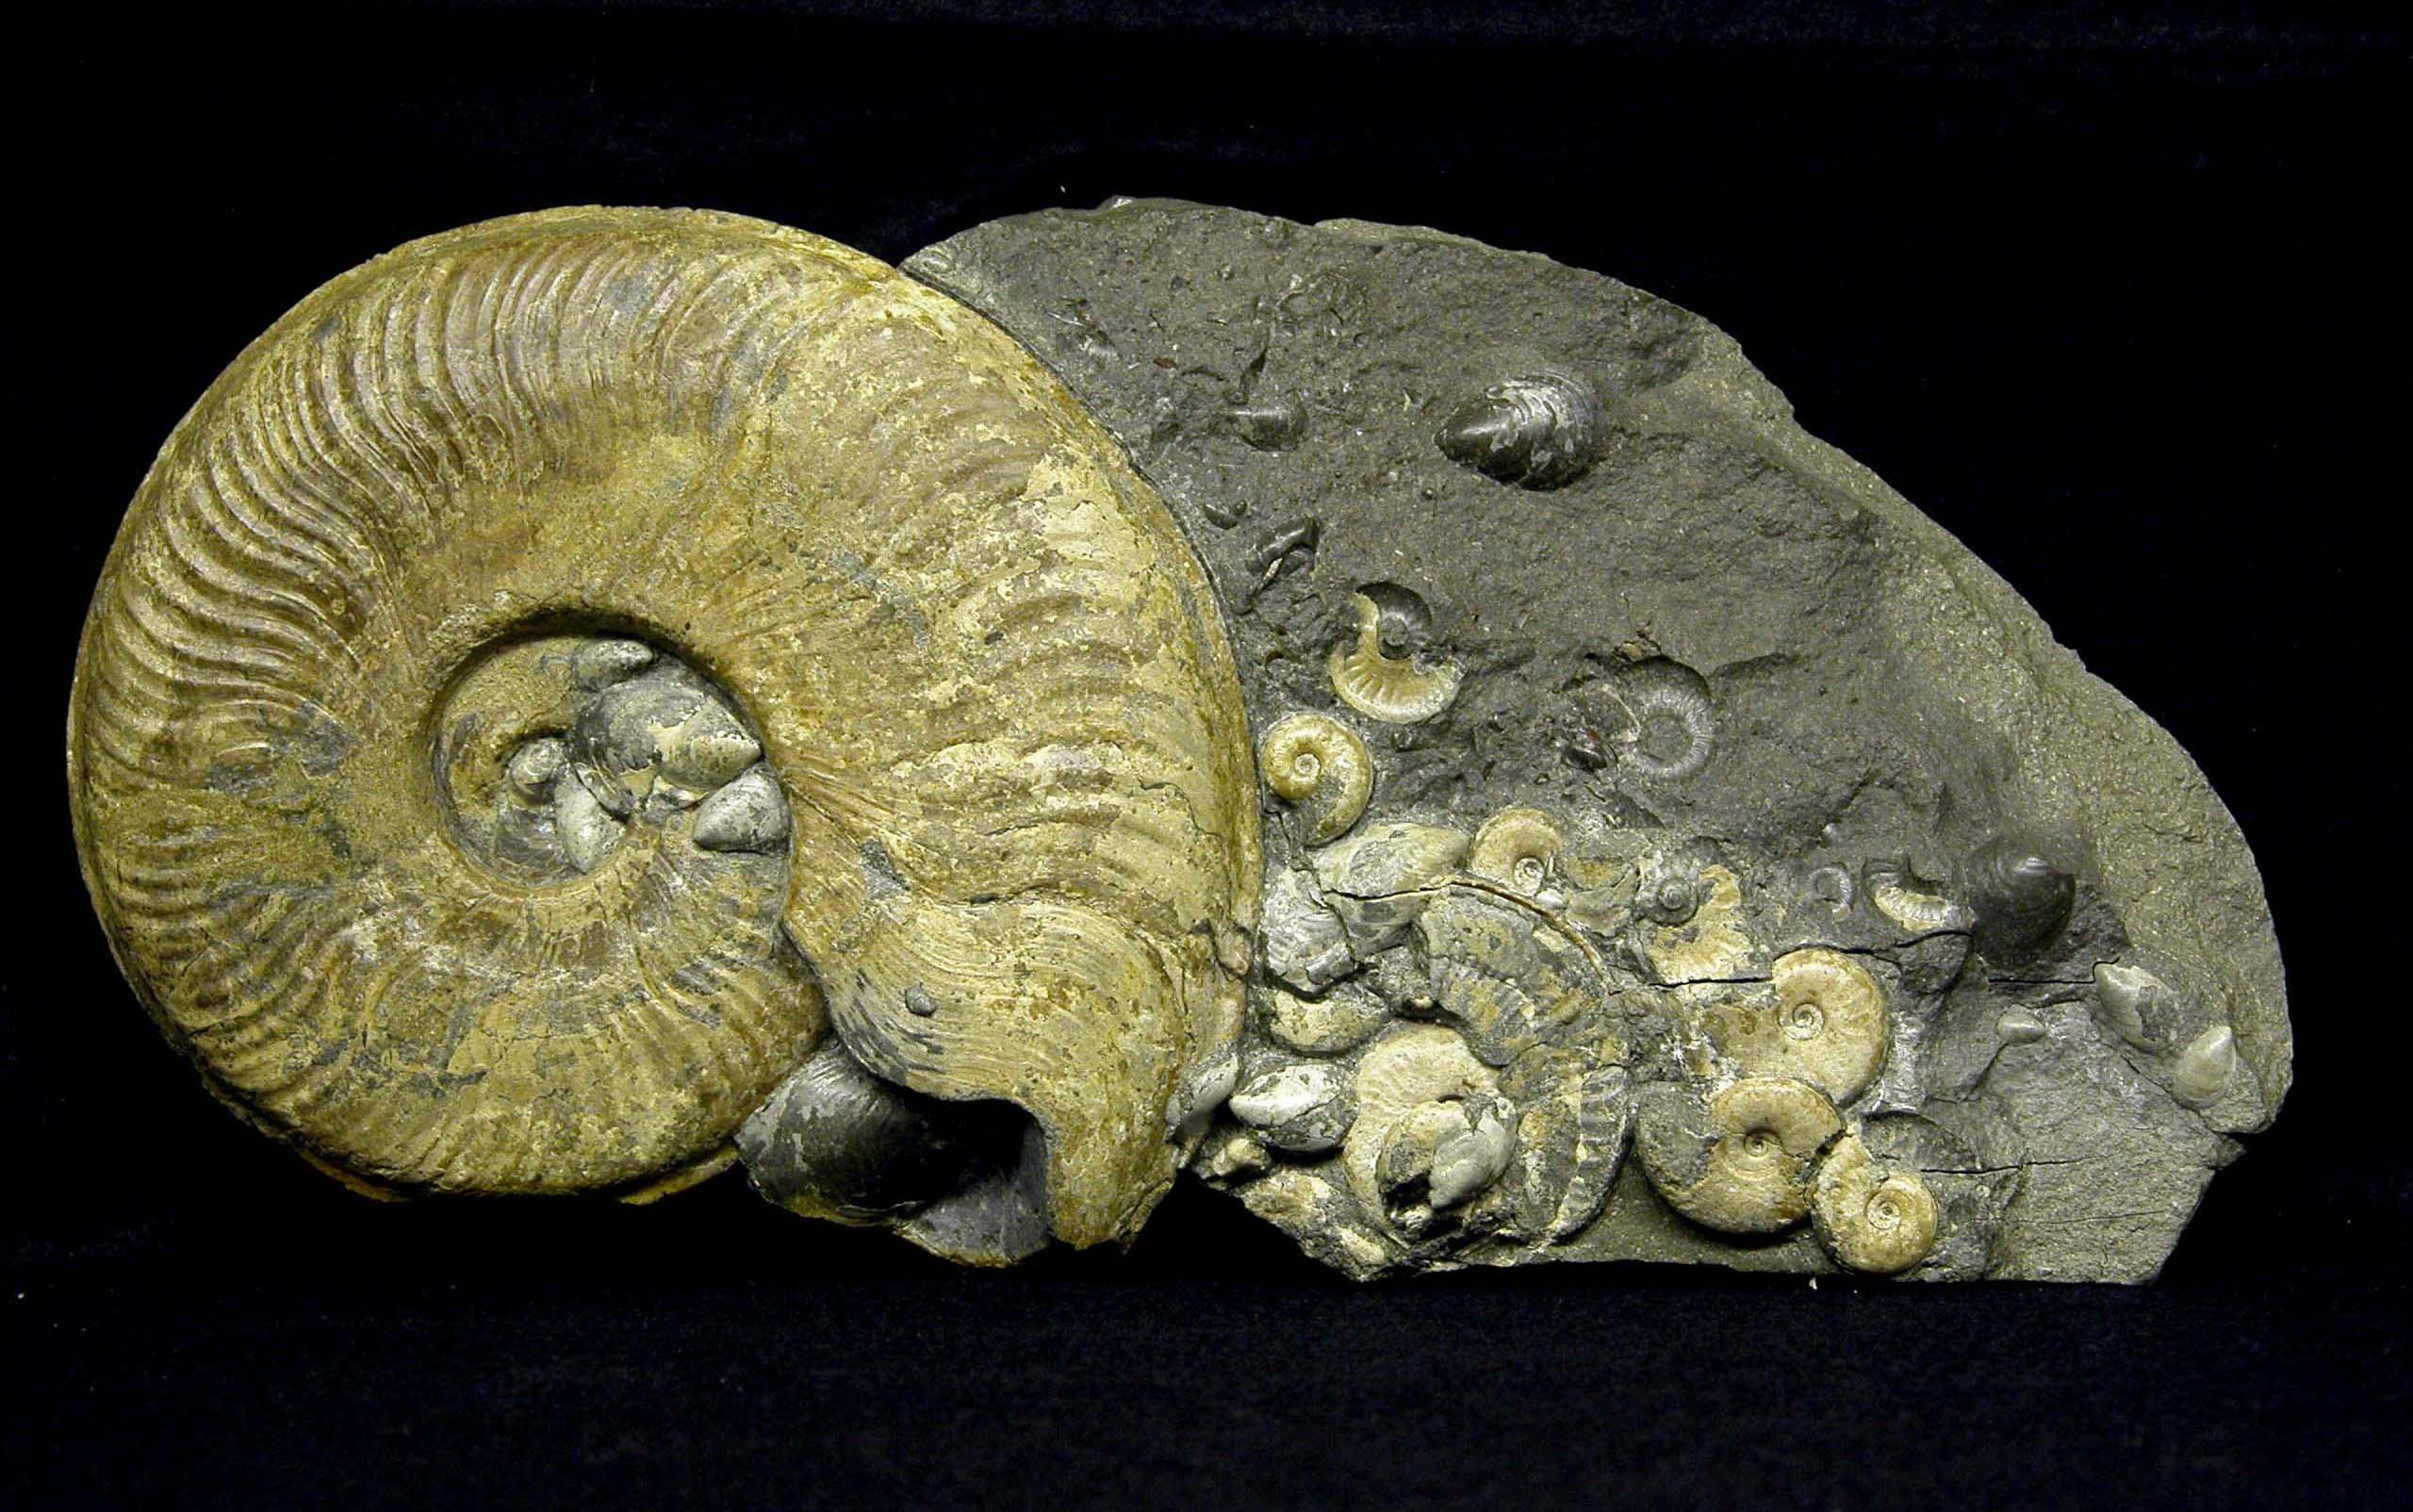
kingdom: Animalia
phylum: Mollusca
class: Cephalopoda
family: Hildoceratidae
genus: Harpoceras
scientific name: Harpoceras
